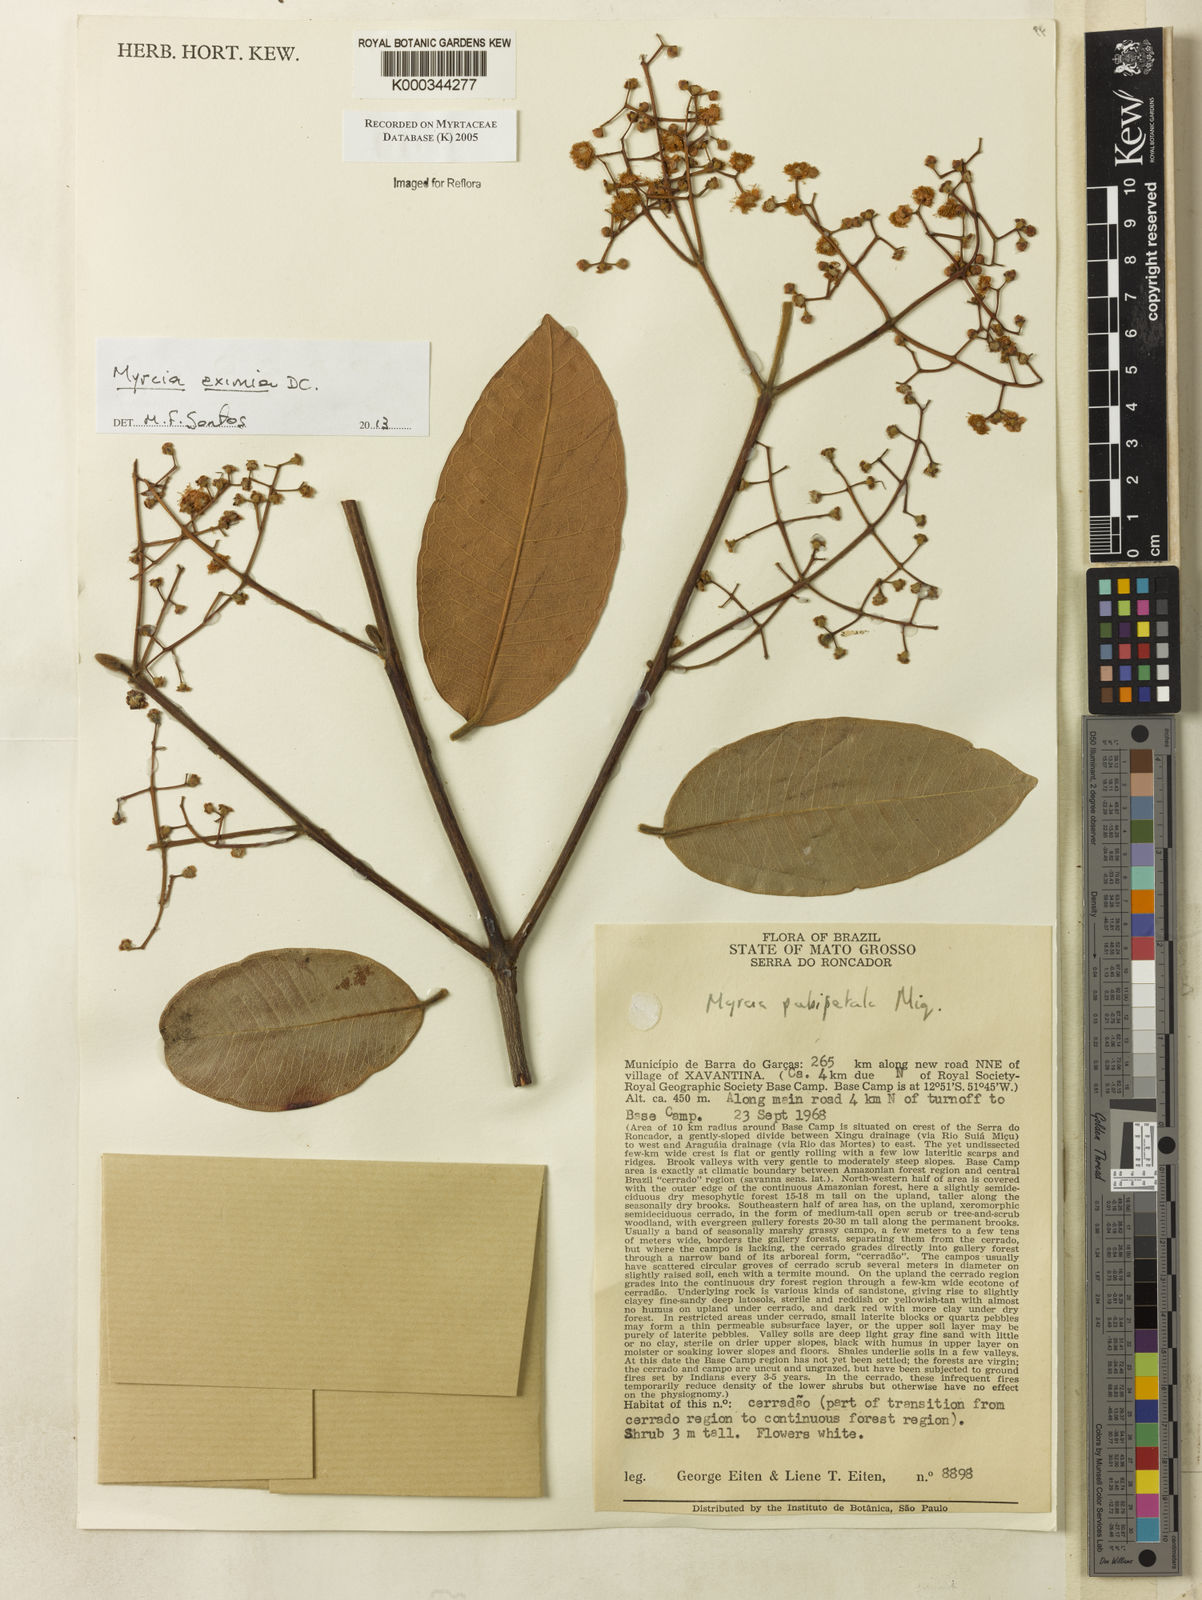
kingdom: Plantae
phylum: Tracheophyta
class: Magnoliopsida
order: Myrtales
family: Myrtaceae
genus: Myrcia
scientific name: Myrcia
